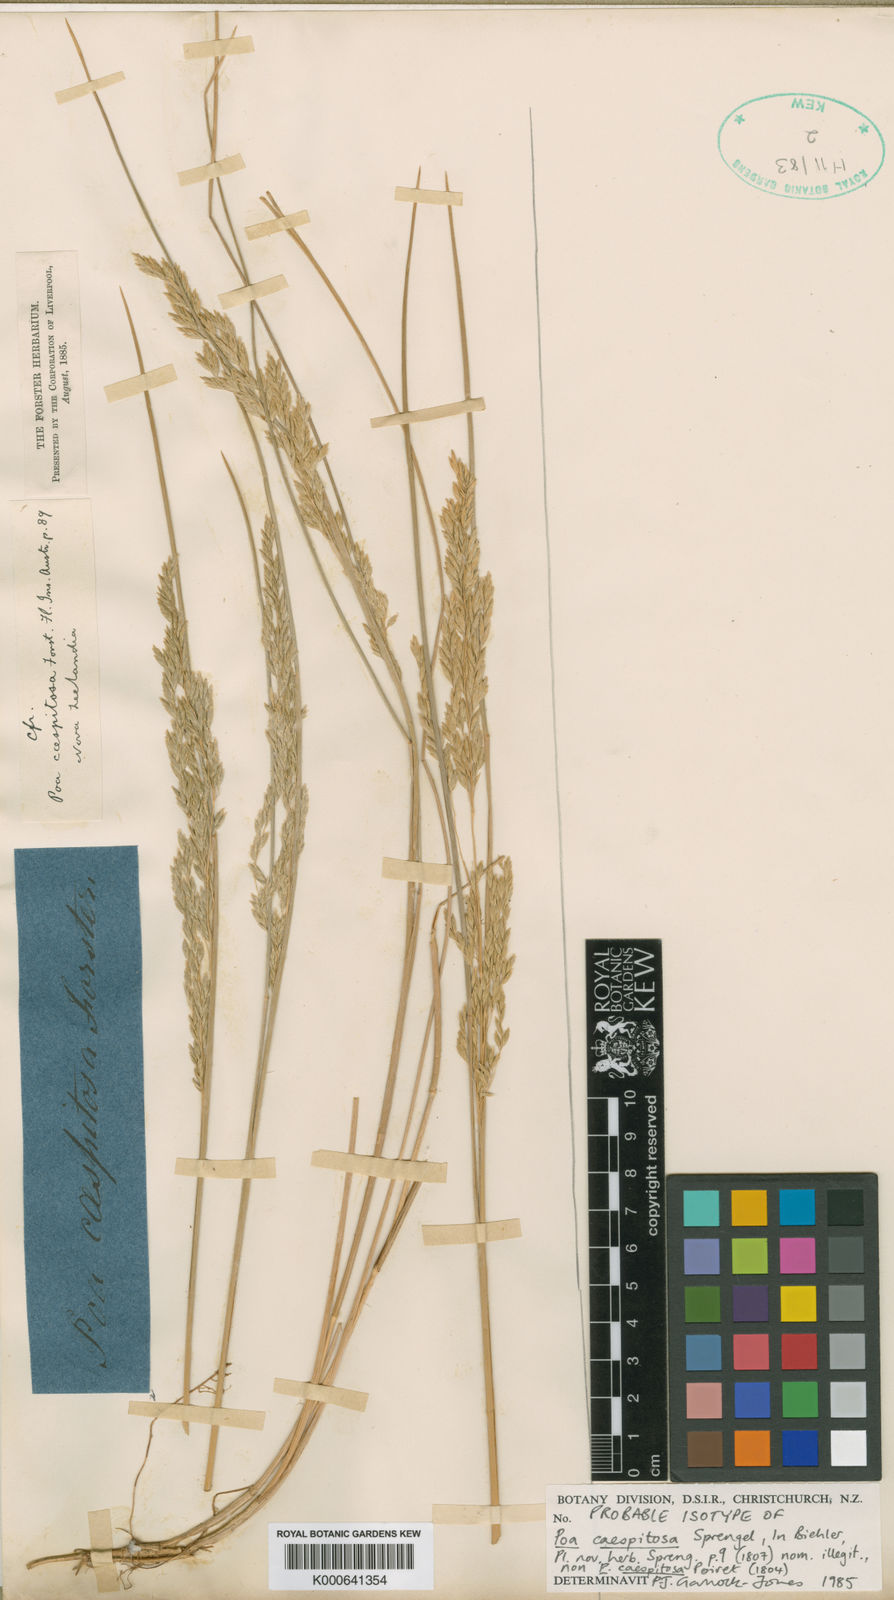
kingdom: Plantae
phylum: Tracheophyta
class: Liliopsida
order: Poales
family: Poaceae
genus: Poa
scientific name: Poa nemoralis
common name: Wood bluegrass
